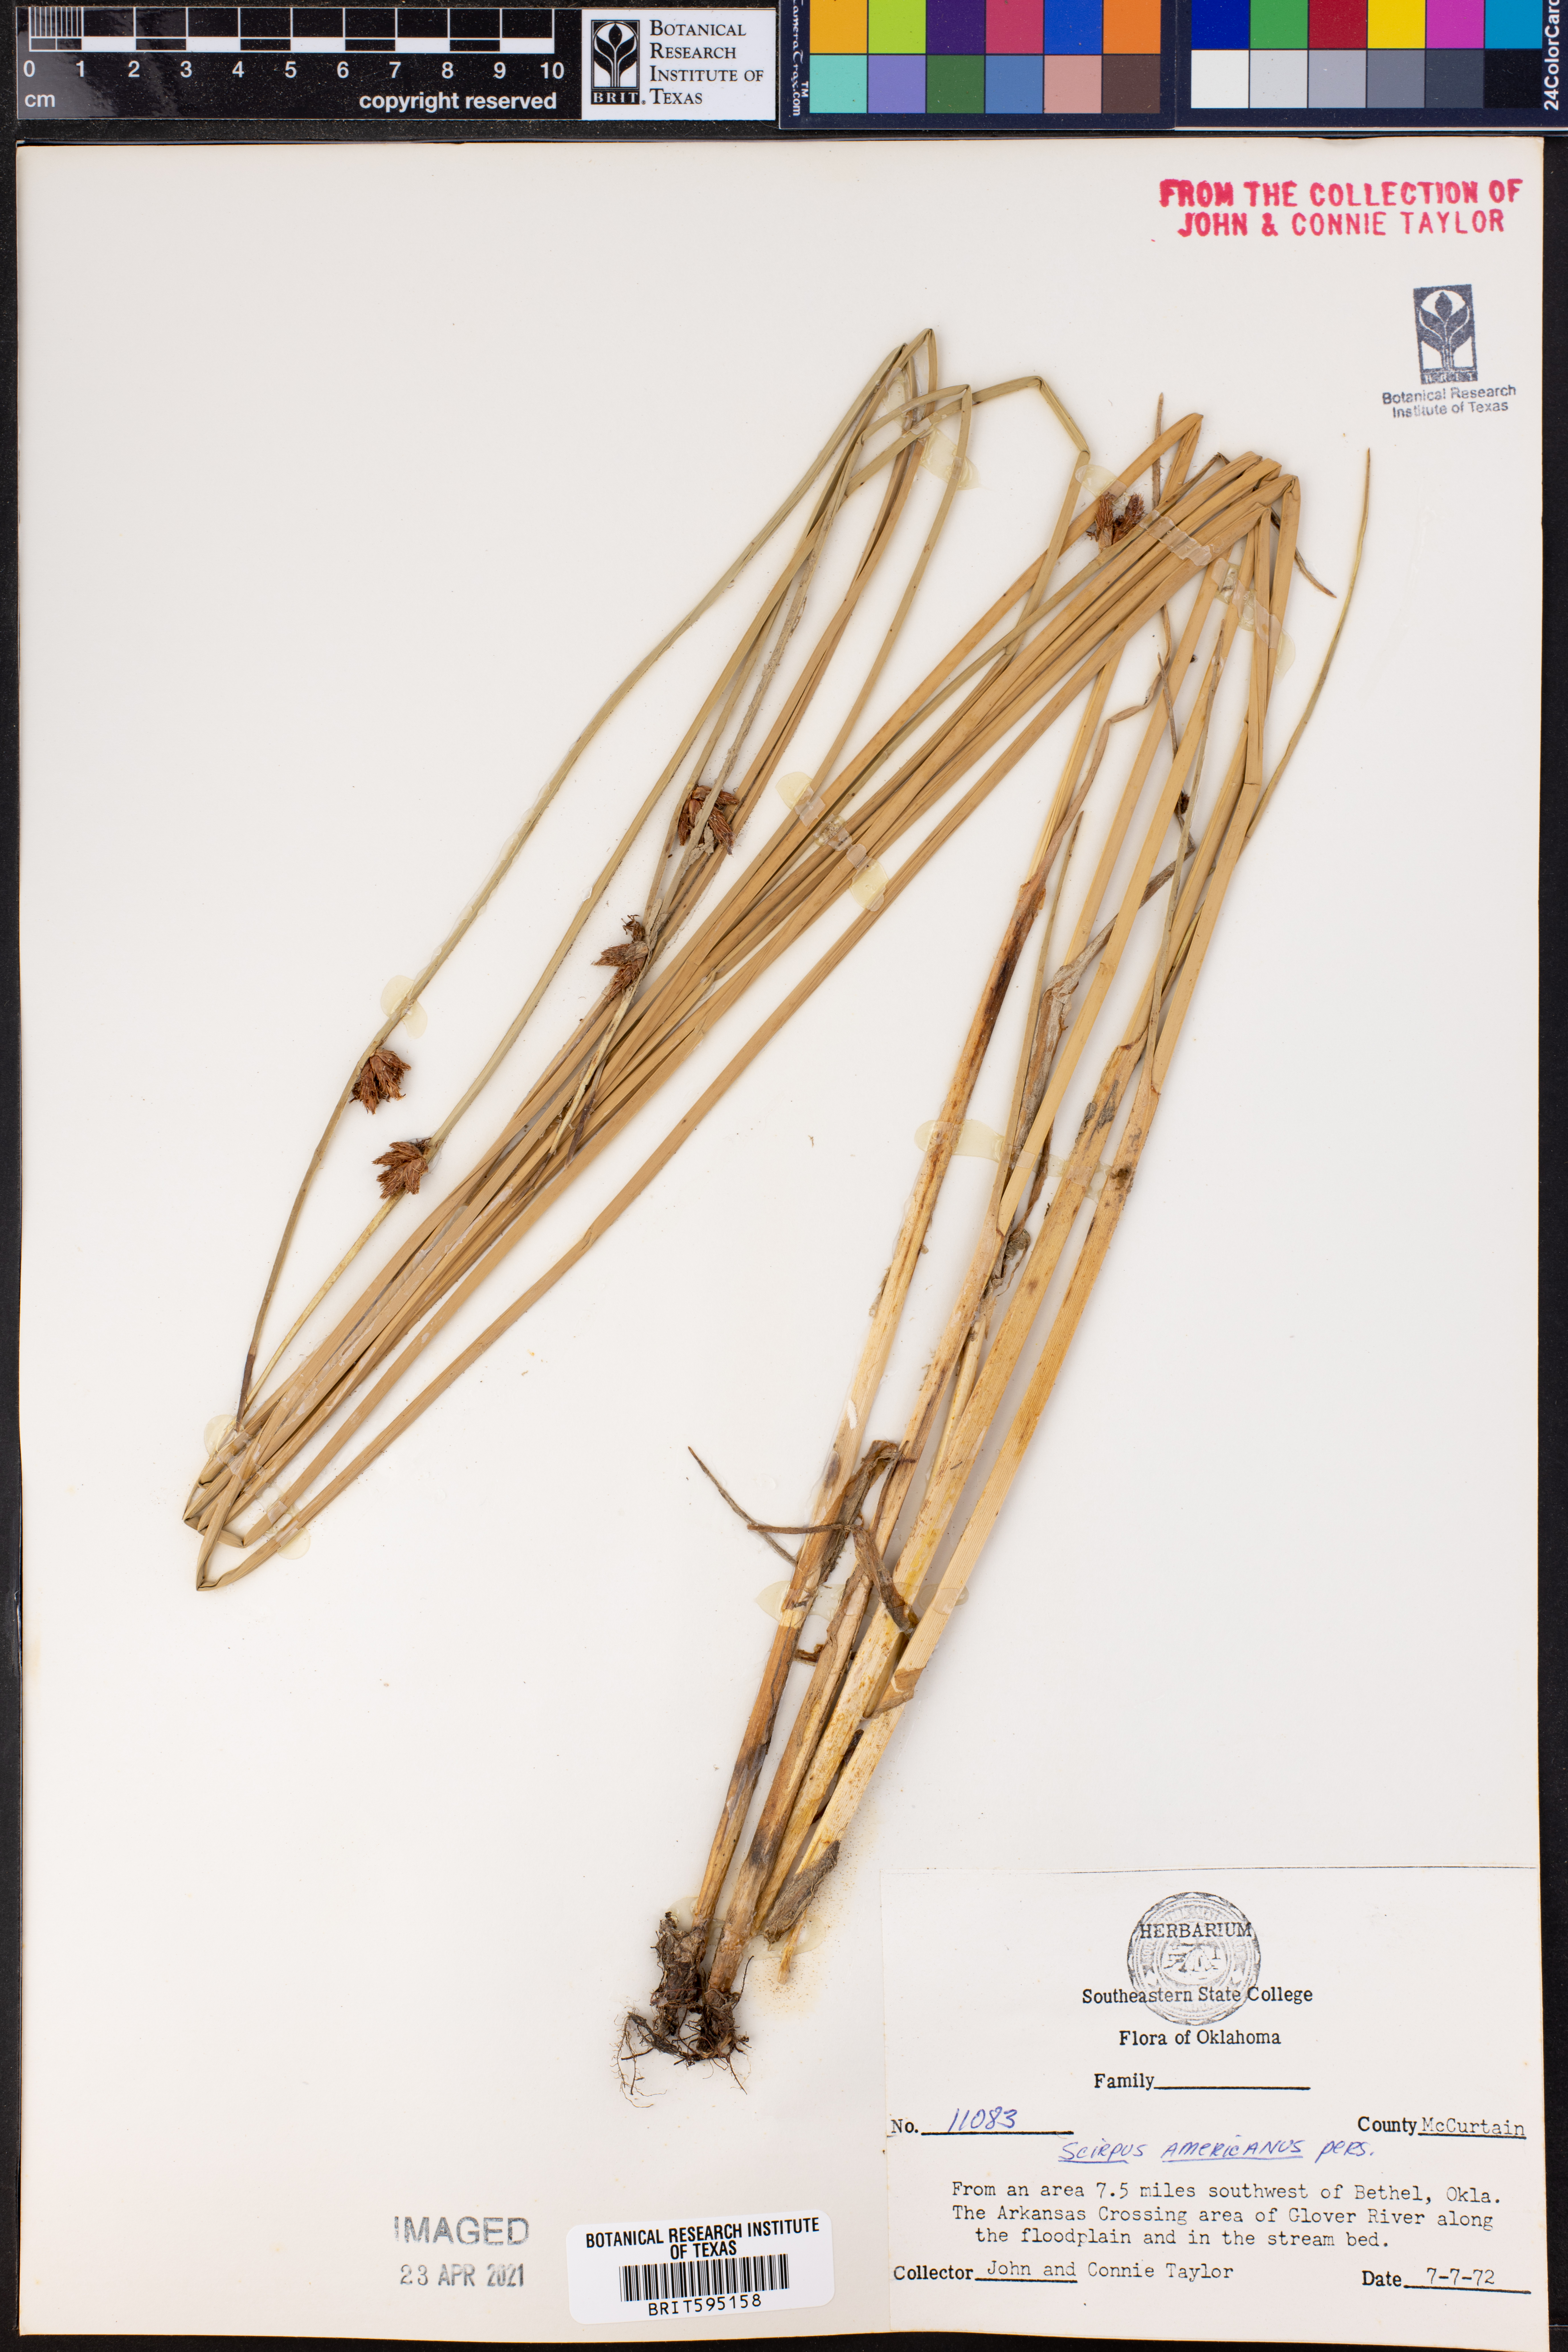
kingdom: Plantae
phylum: Tracheophyta
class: Liliopsida
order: Poales
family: Cyperaceae
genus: Schoenoplectus
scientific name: Schoenoplectus americanus
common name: American three-square bulrush
